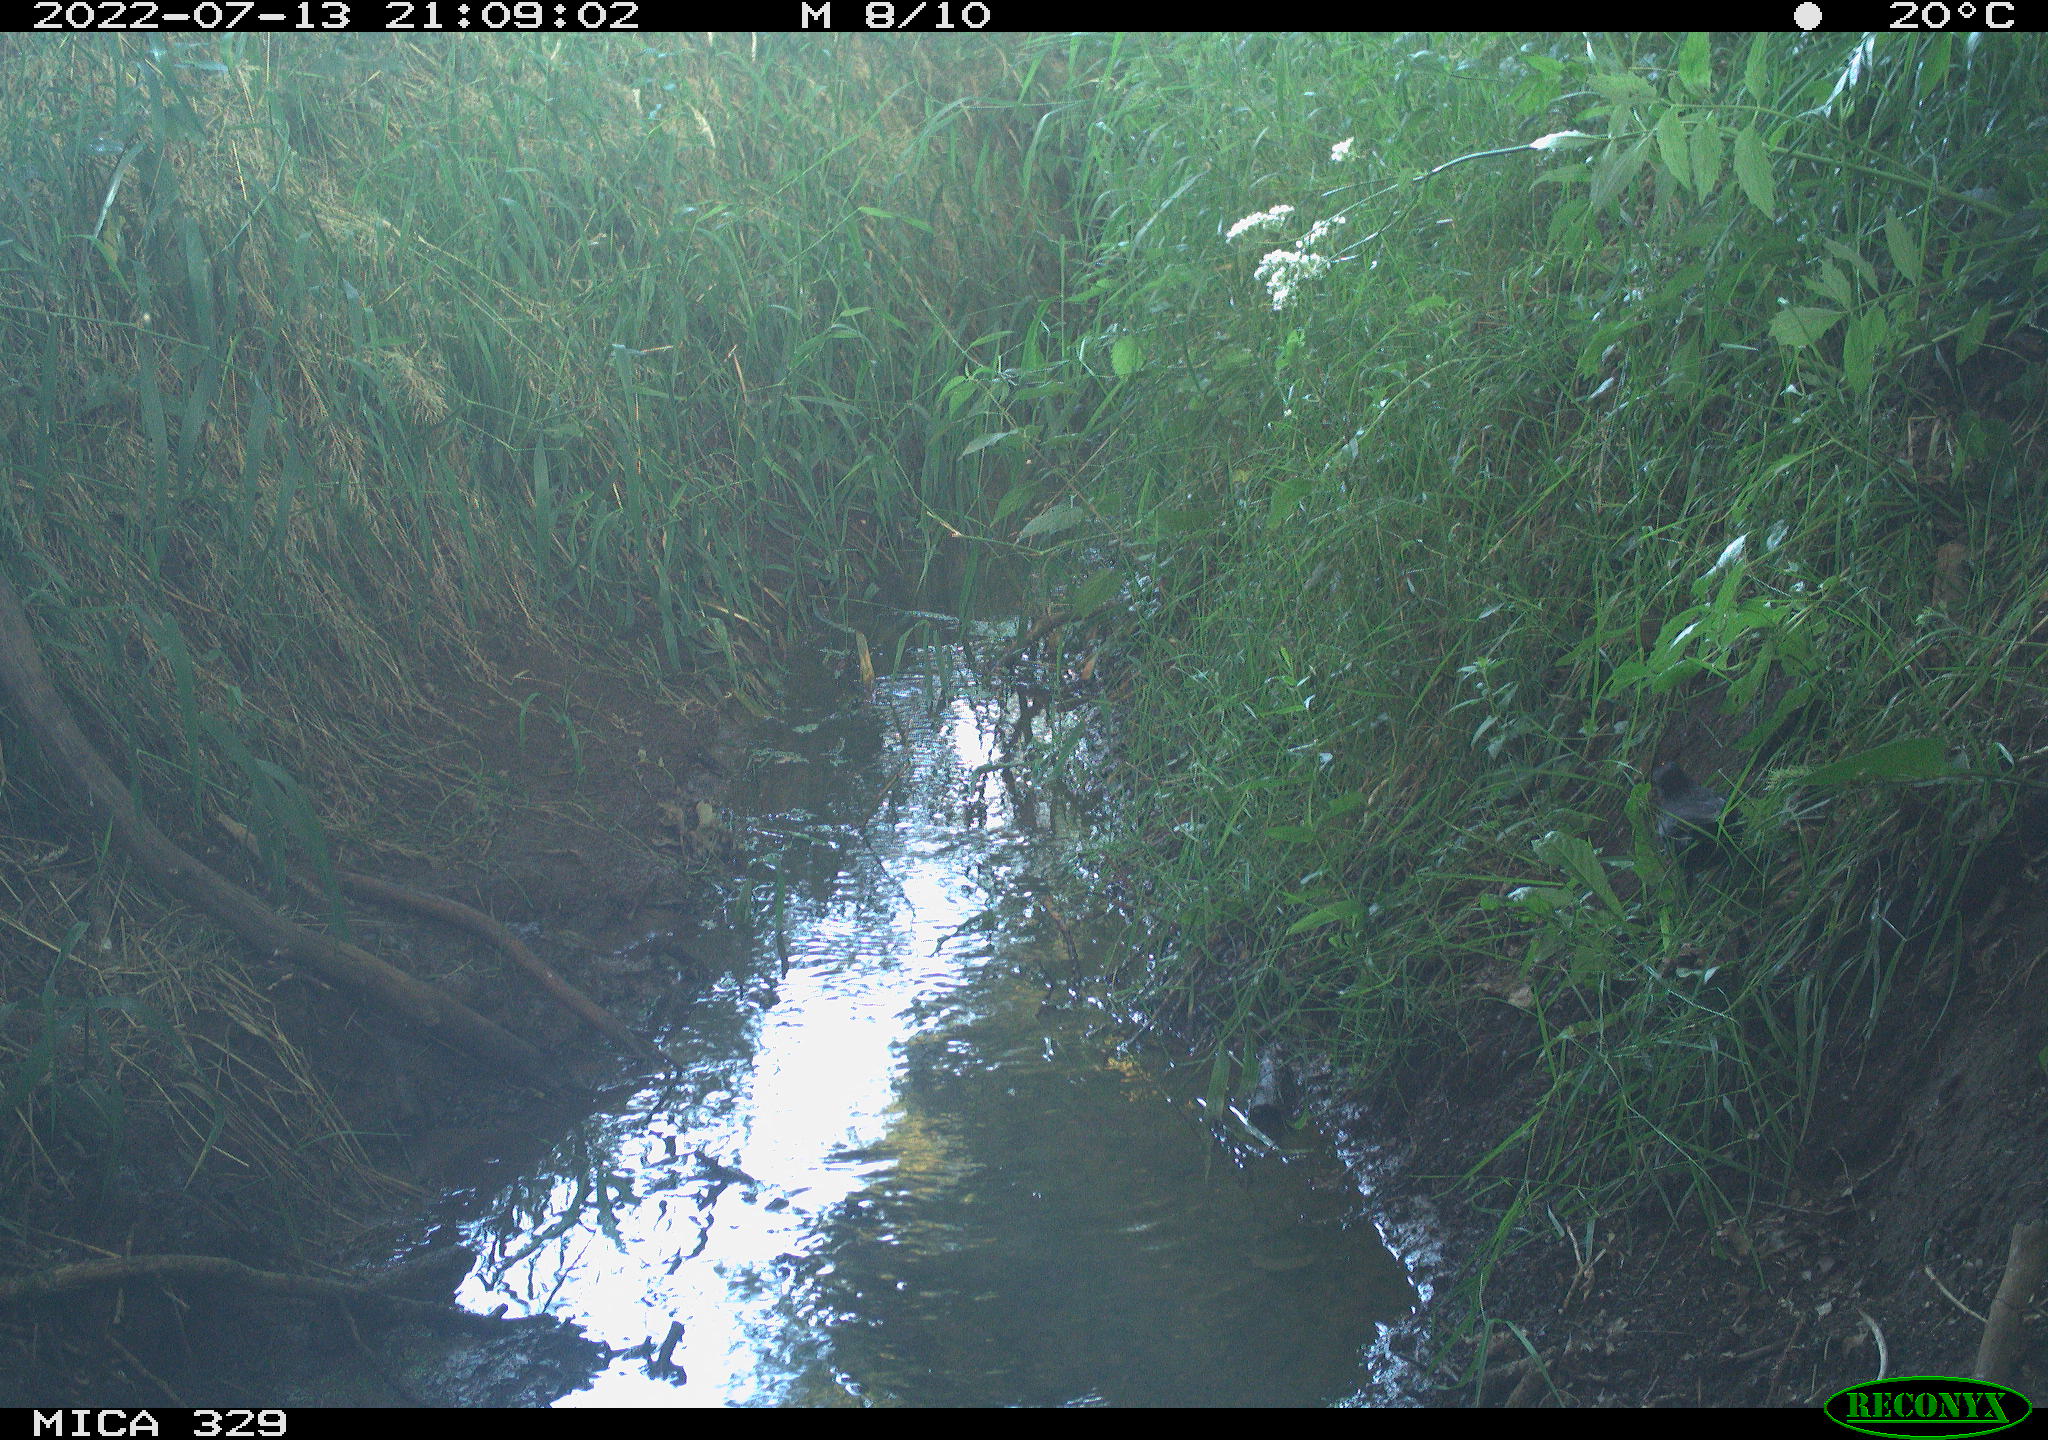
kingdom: Animalia
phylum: Chordata
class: Aves
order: Passeriformes
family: Turdidae
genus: Turdus
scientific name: Turdus merula
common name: Common blackbird
